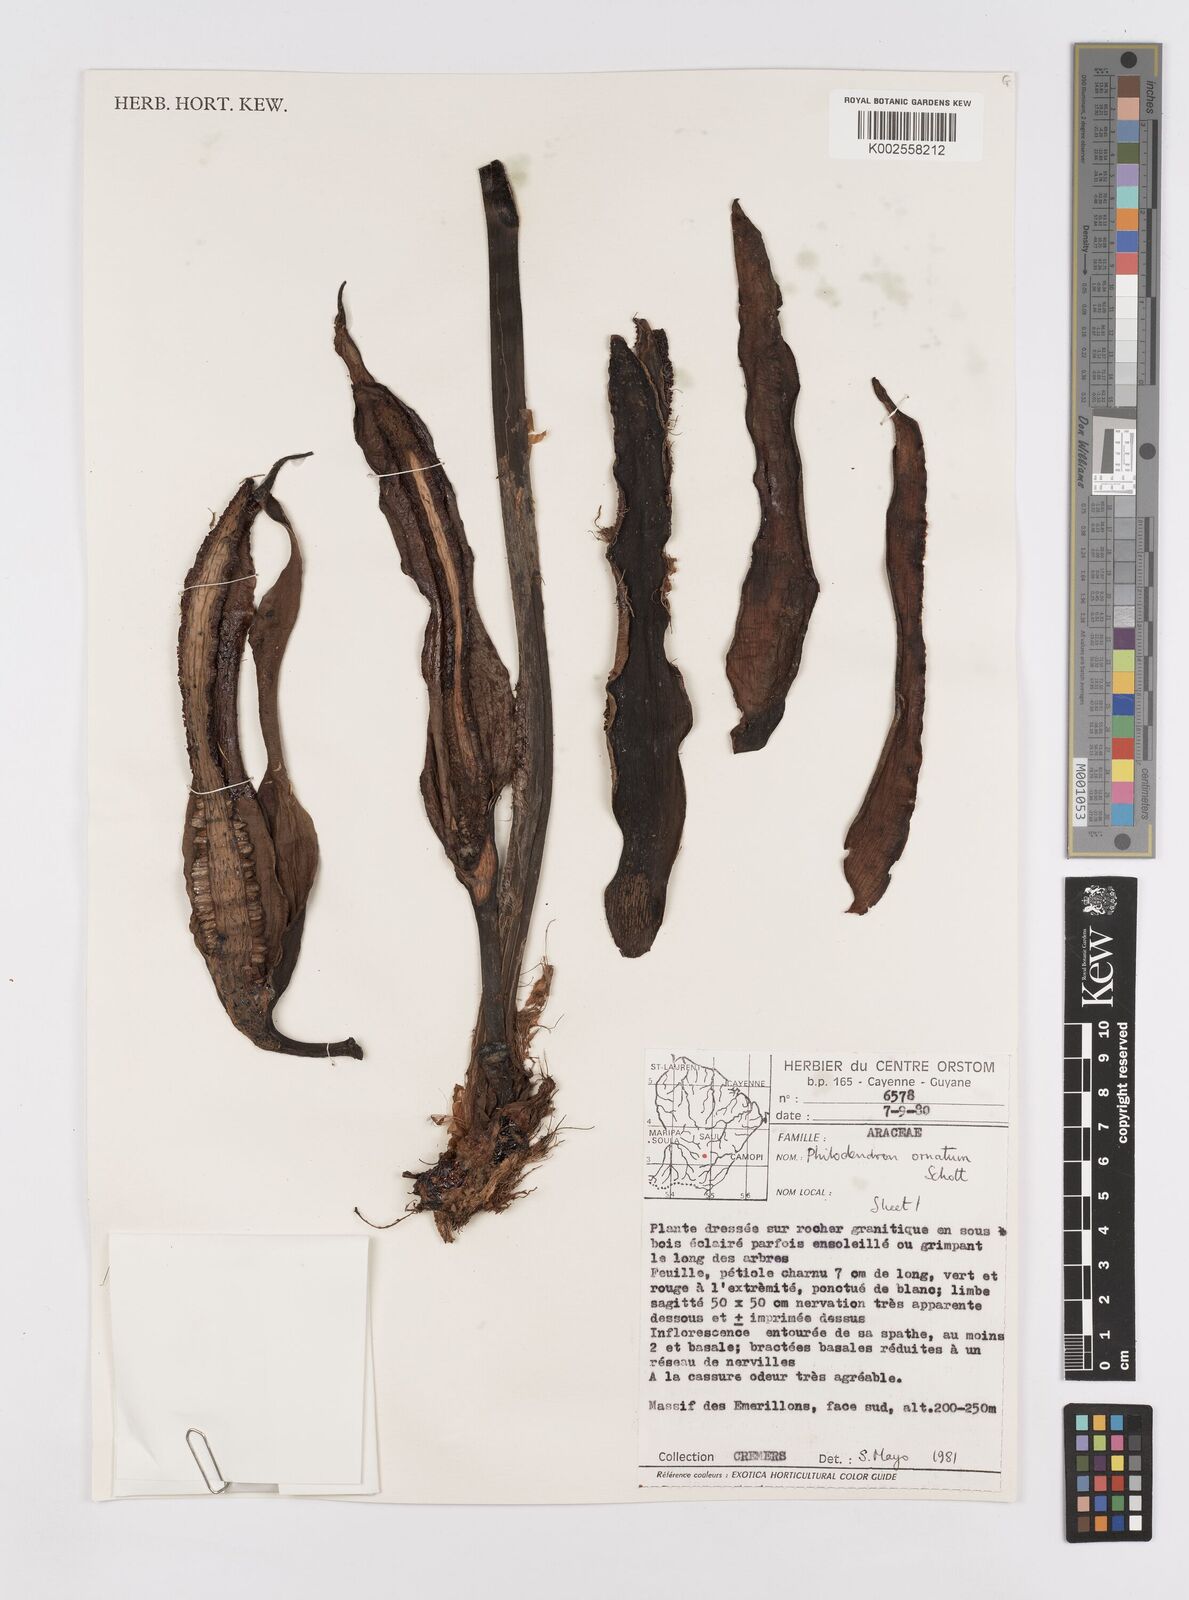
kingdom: Plantae
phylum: Tracheophyta
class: Liliopsida
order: Alismatales
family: Araceae
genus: Philodendron
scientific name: Philodendron ornatum
